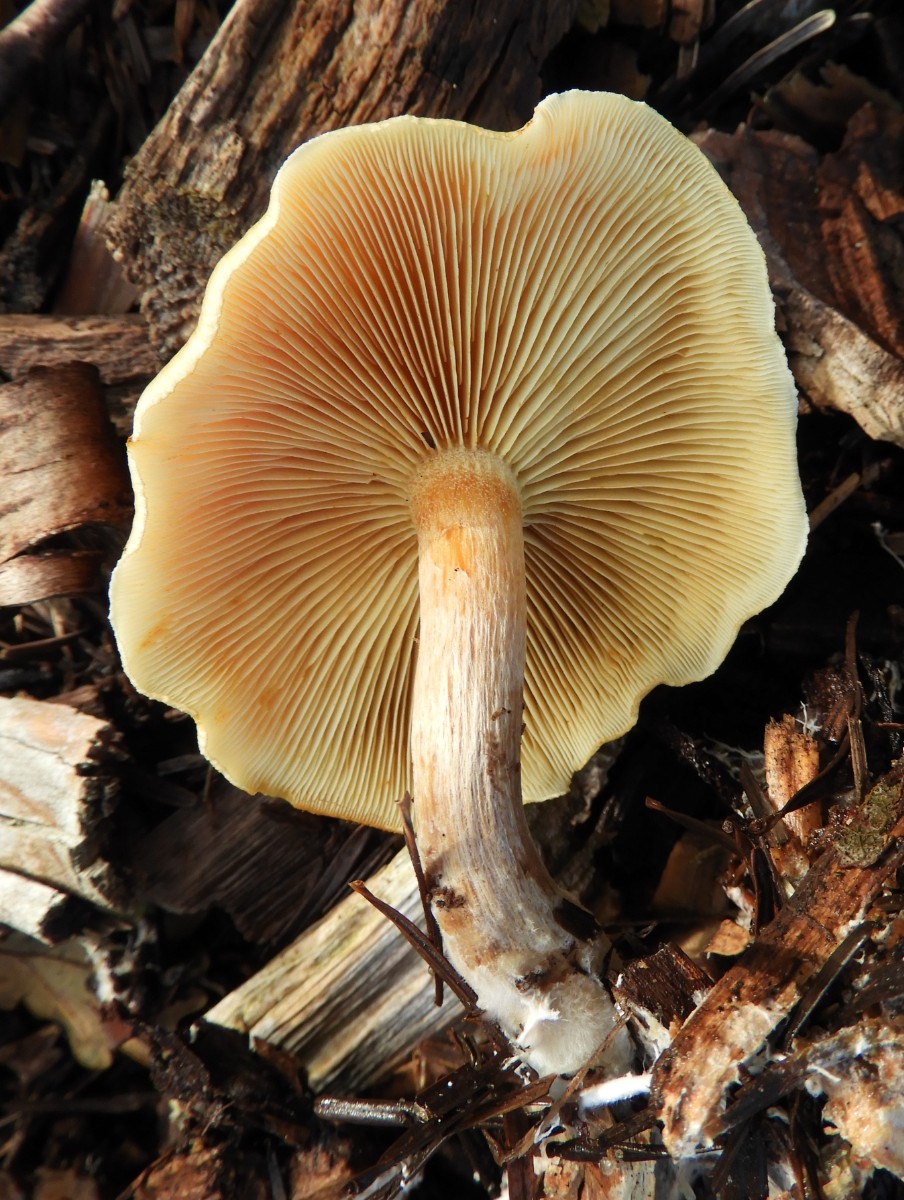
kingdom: Fungi
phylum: Basidiomycota
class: Agaricomycetes
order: Agaricales
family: Hymenogastraceae
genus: Gymnopilus
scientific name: Gymnopilus penetrans
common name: plettet flammehat
